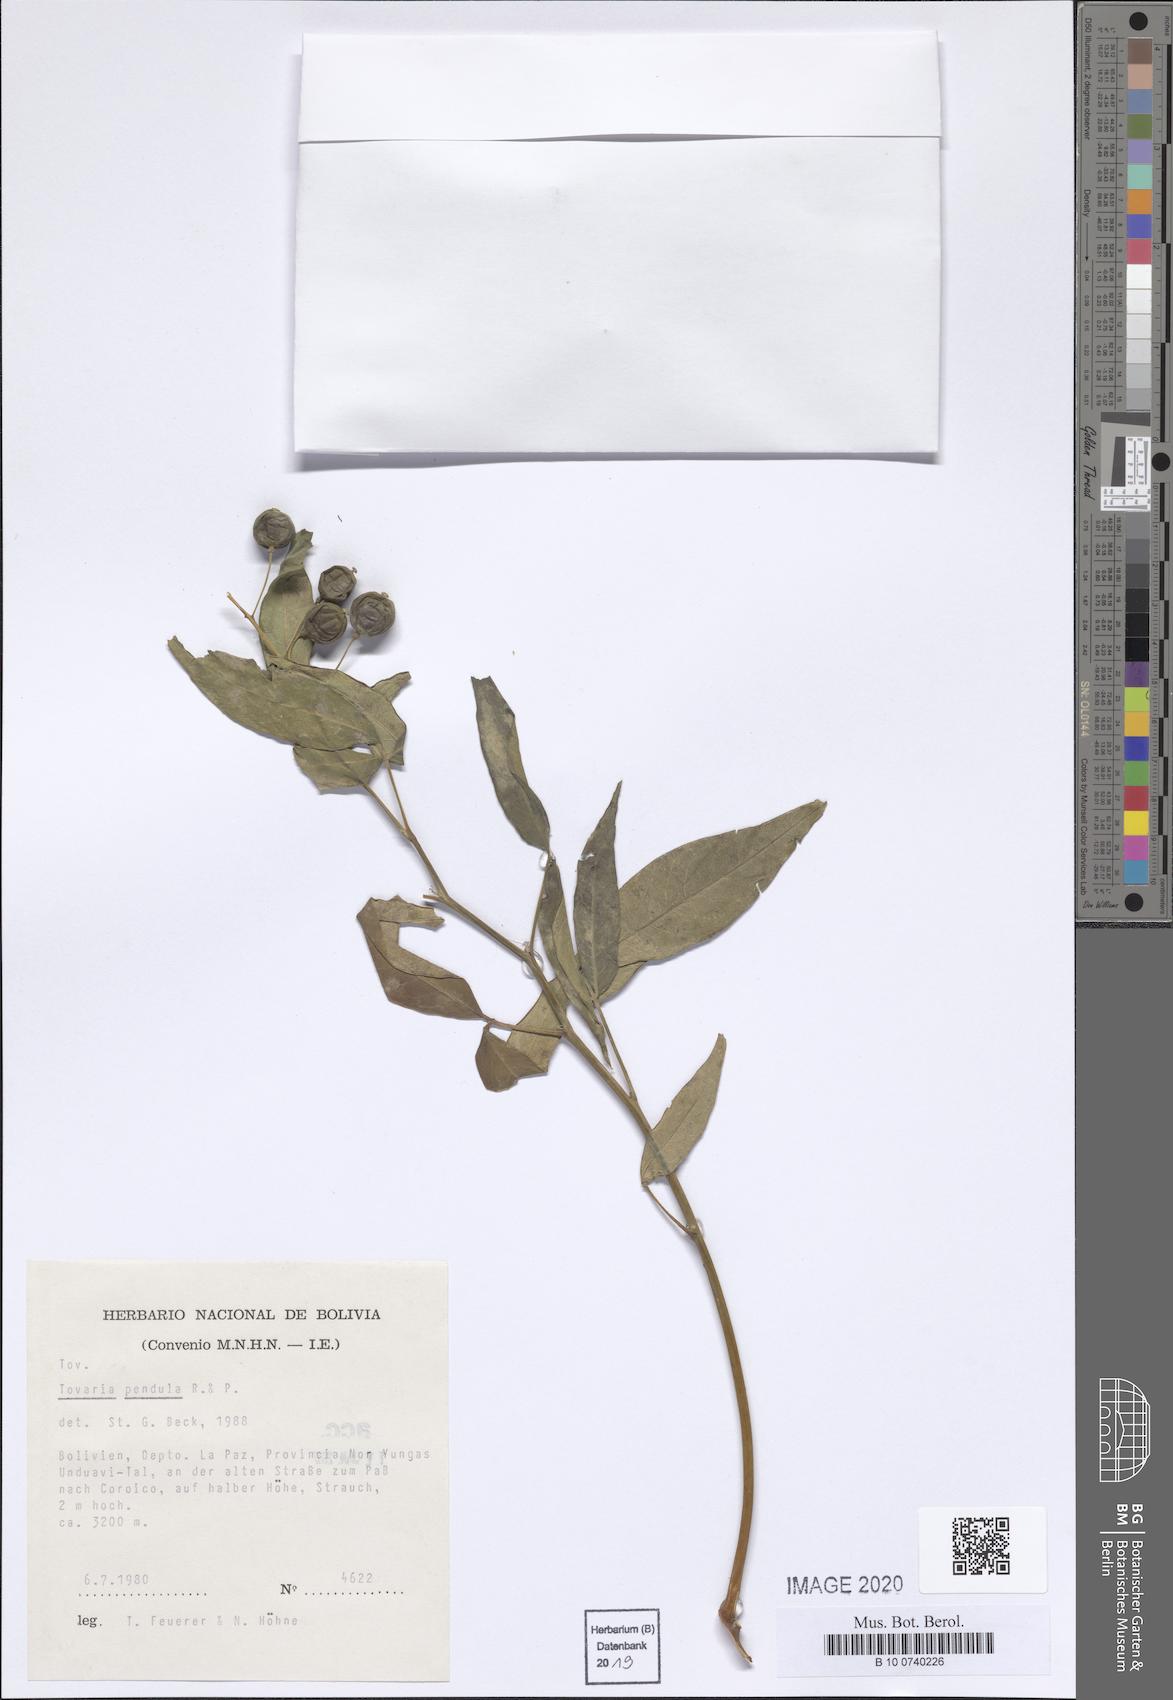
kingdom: Plantae
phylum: Tracheophyta
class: Magnoliopsida
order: Brassicales
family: Tovariaceae
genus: Tovaria
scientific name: Tovaria pendula
